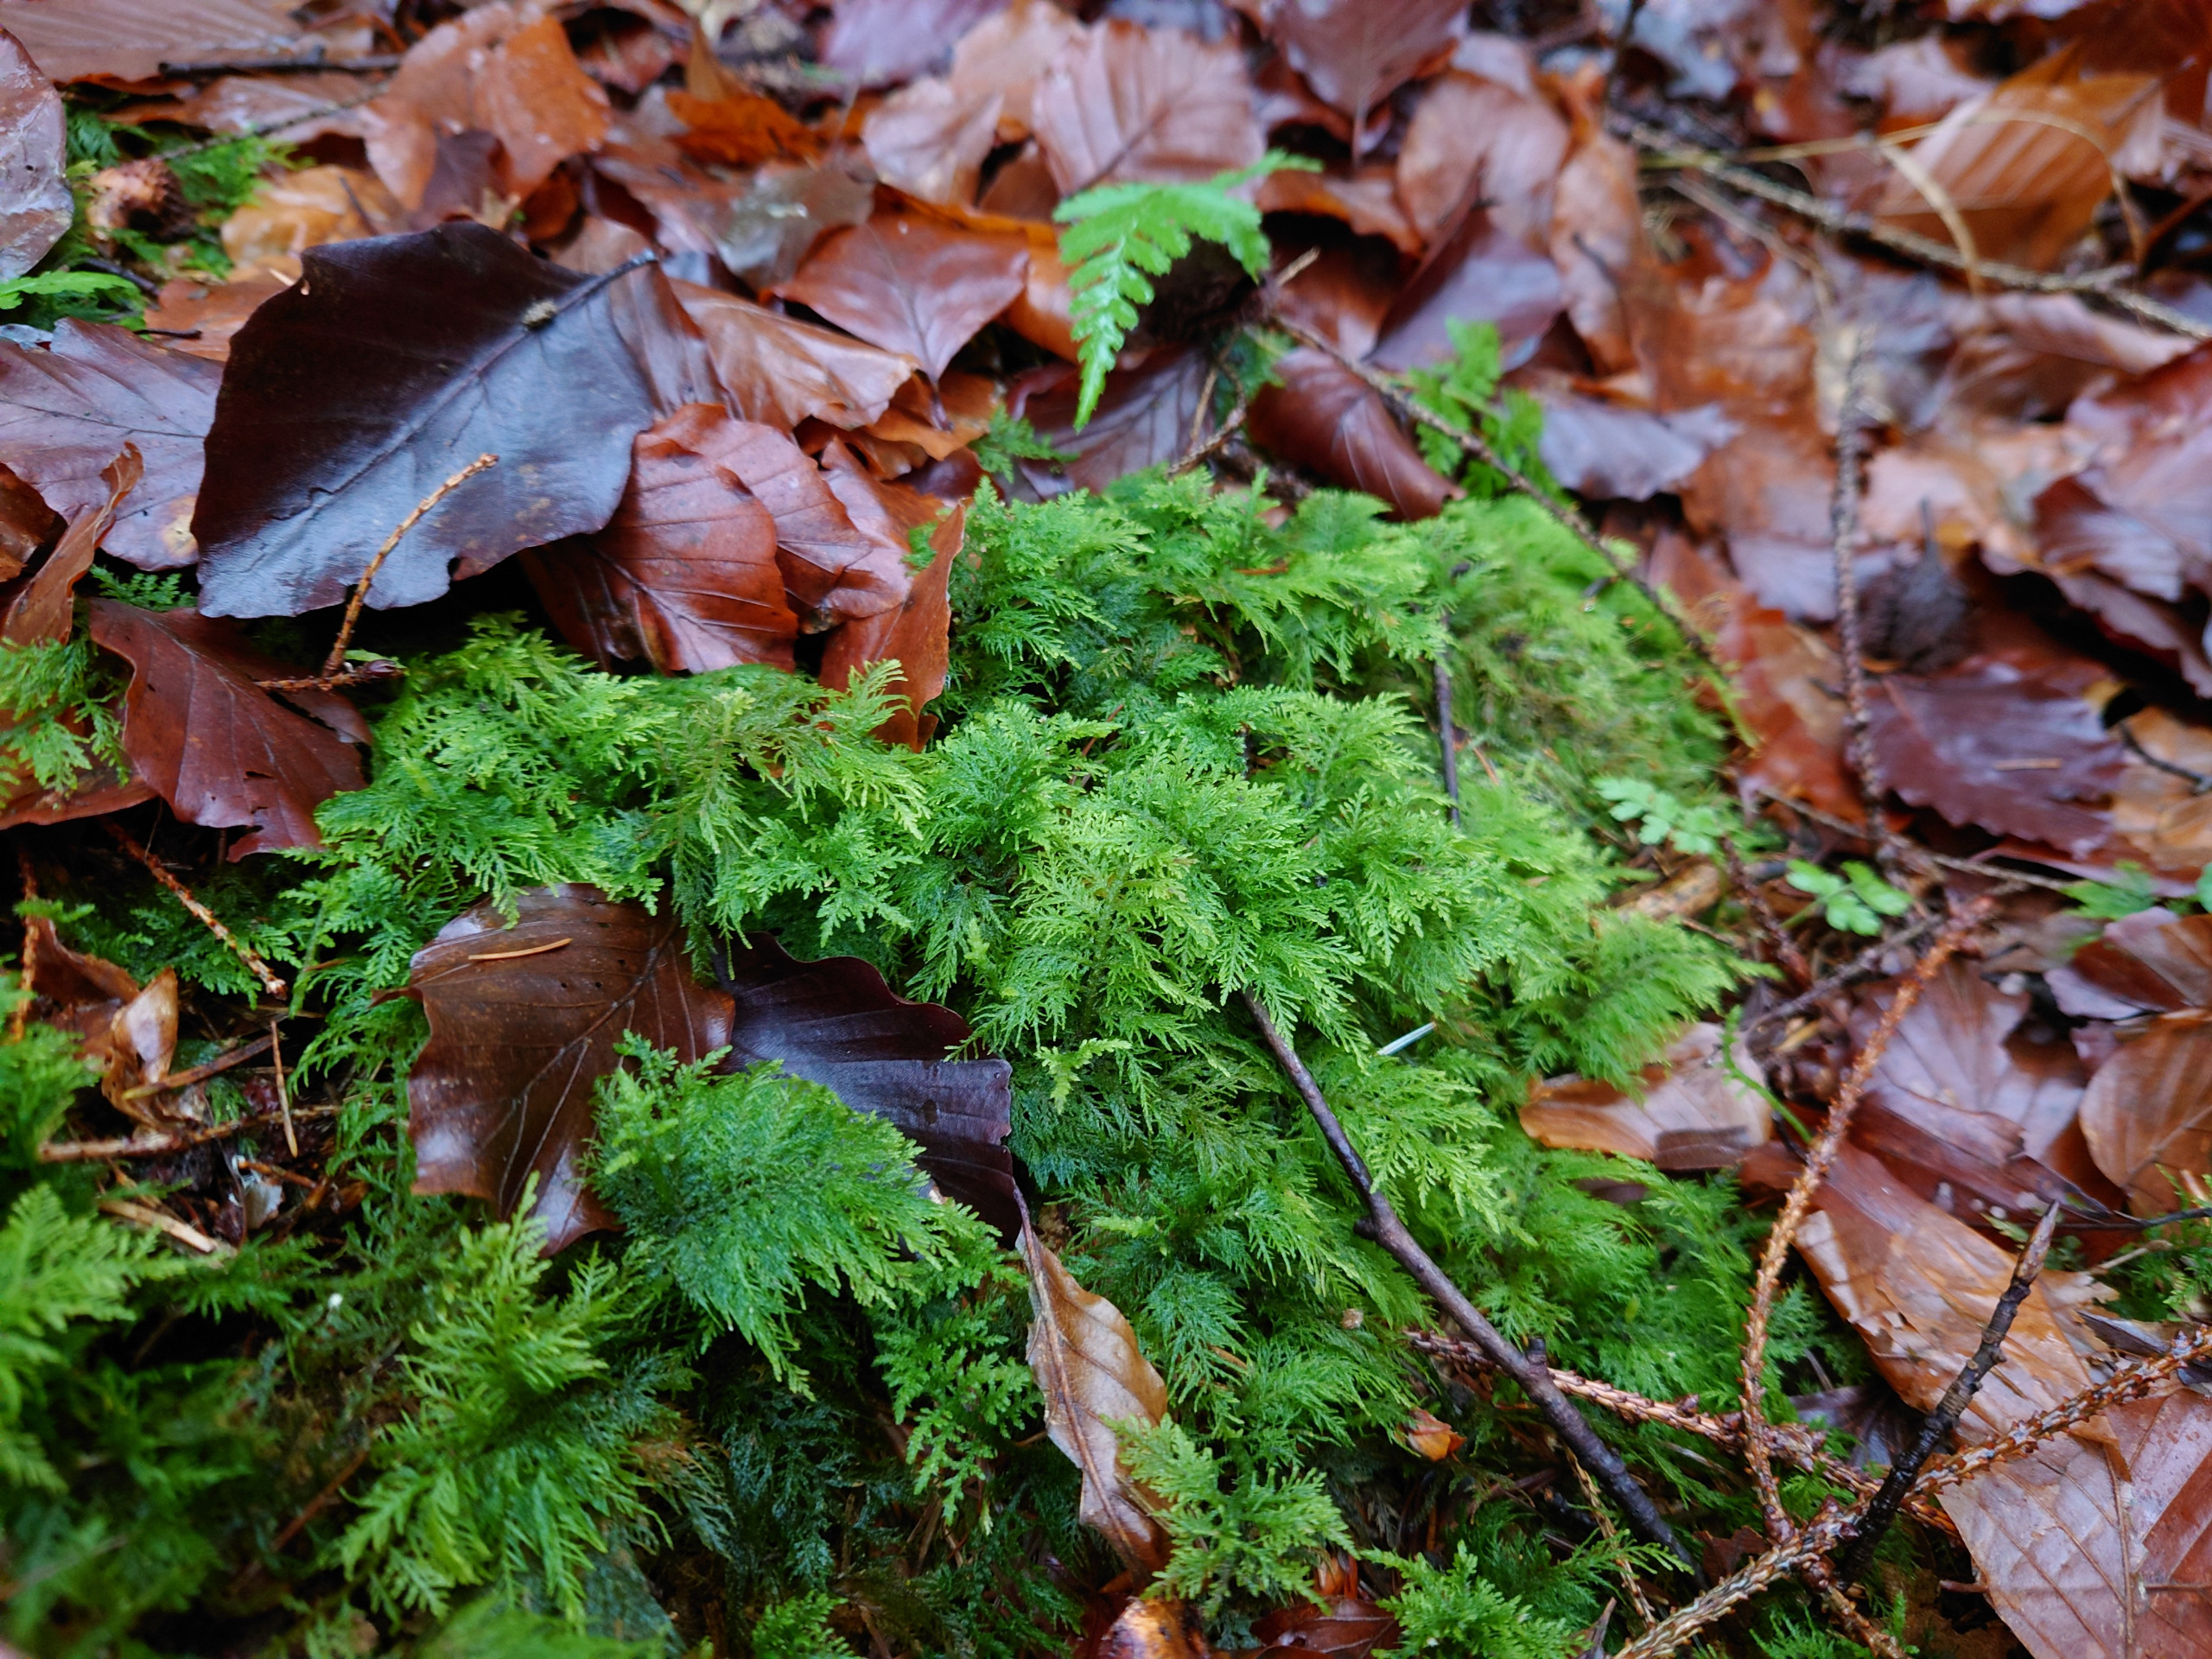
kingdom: Plantae
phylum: Bryophyta
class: Bryopsida
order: Hypnales
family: Thuidiaceae
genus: Thuidium
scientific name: Thuidium tamariscinum
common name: Pryd-bregnemos
